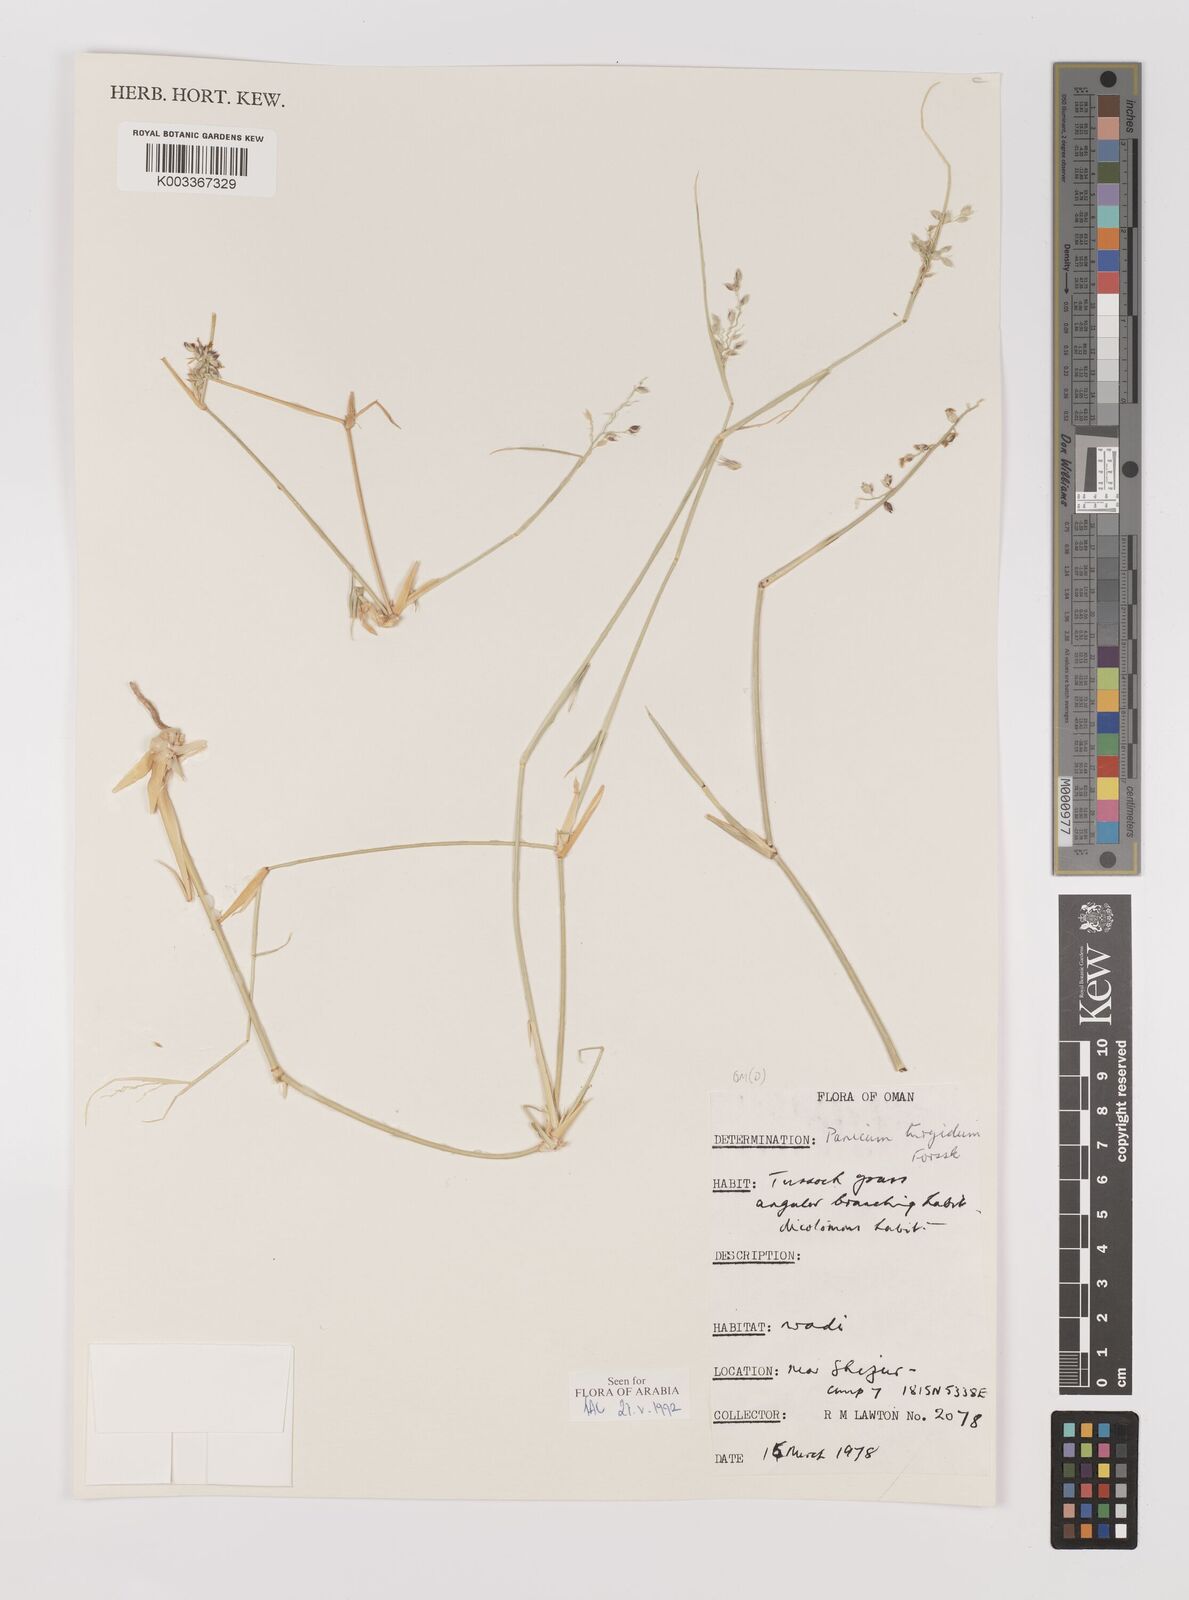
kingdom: Plantae
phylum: Tracheophyta
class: Liliopsida
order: Poales
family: Poaceae
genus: Panicum
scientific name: Panicum turgidum
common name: Desert grass
